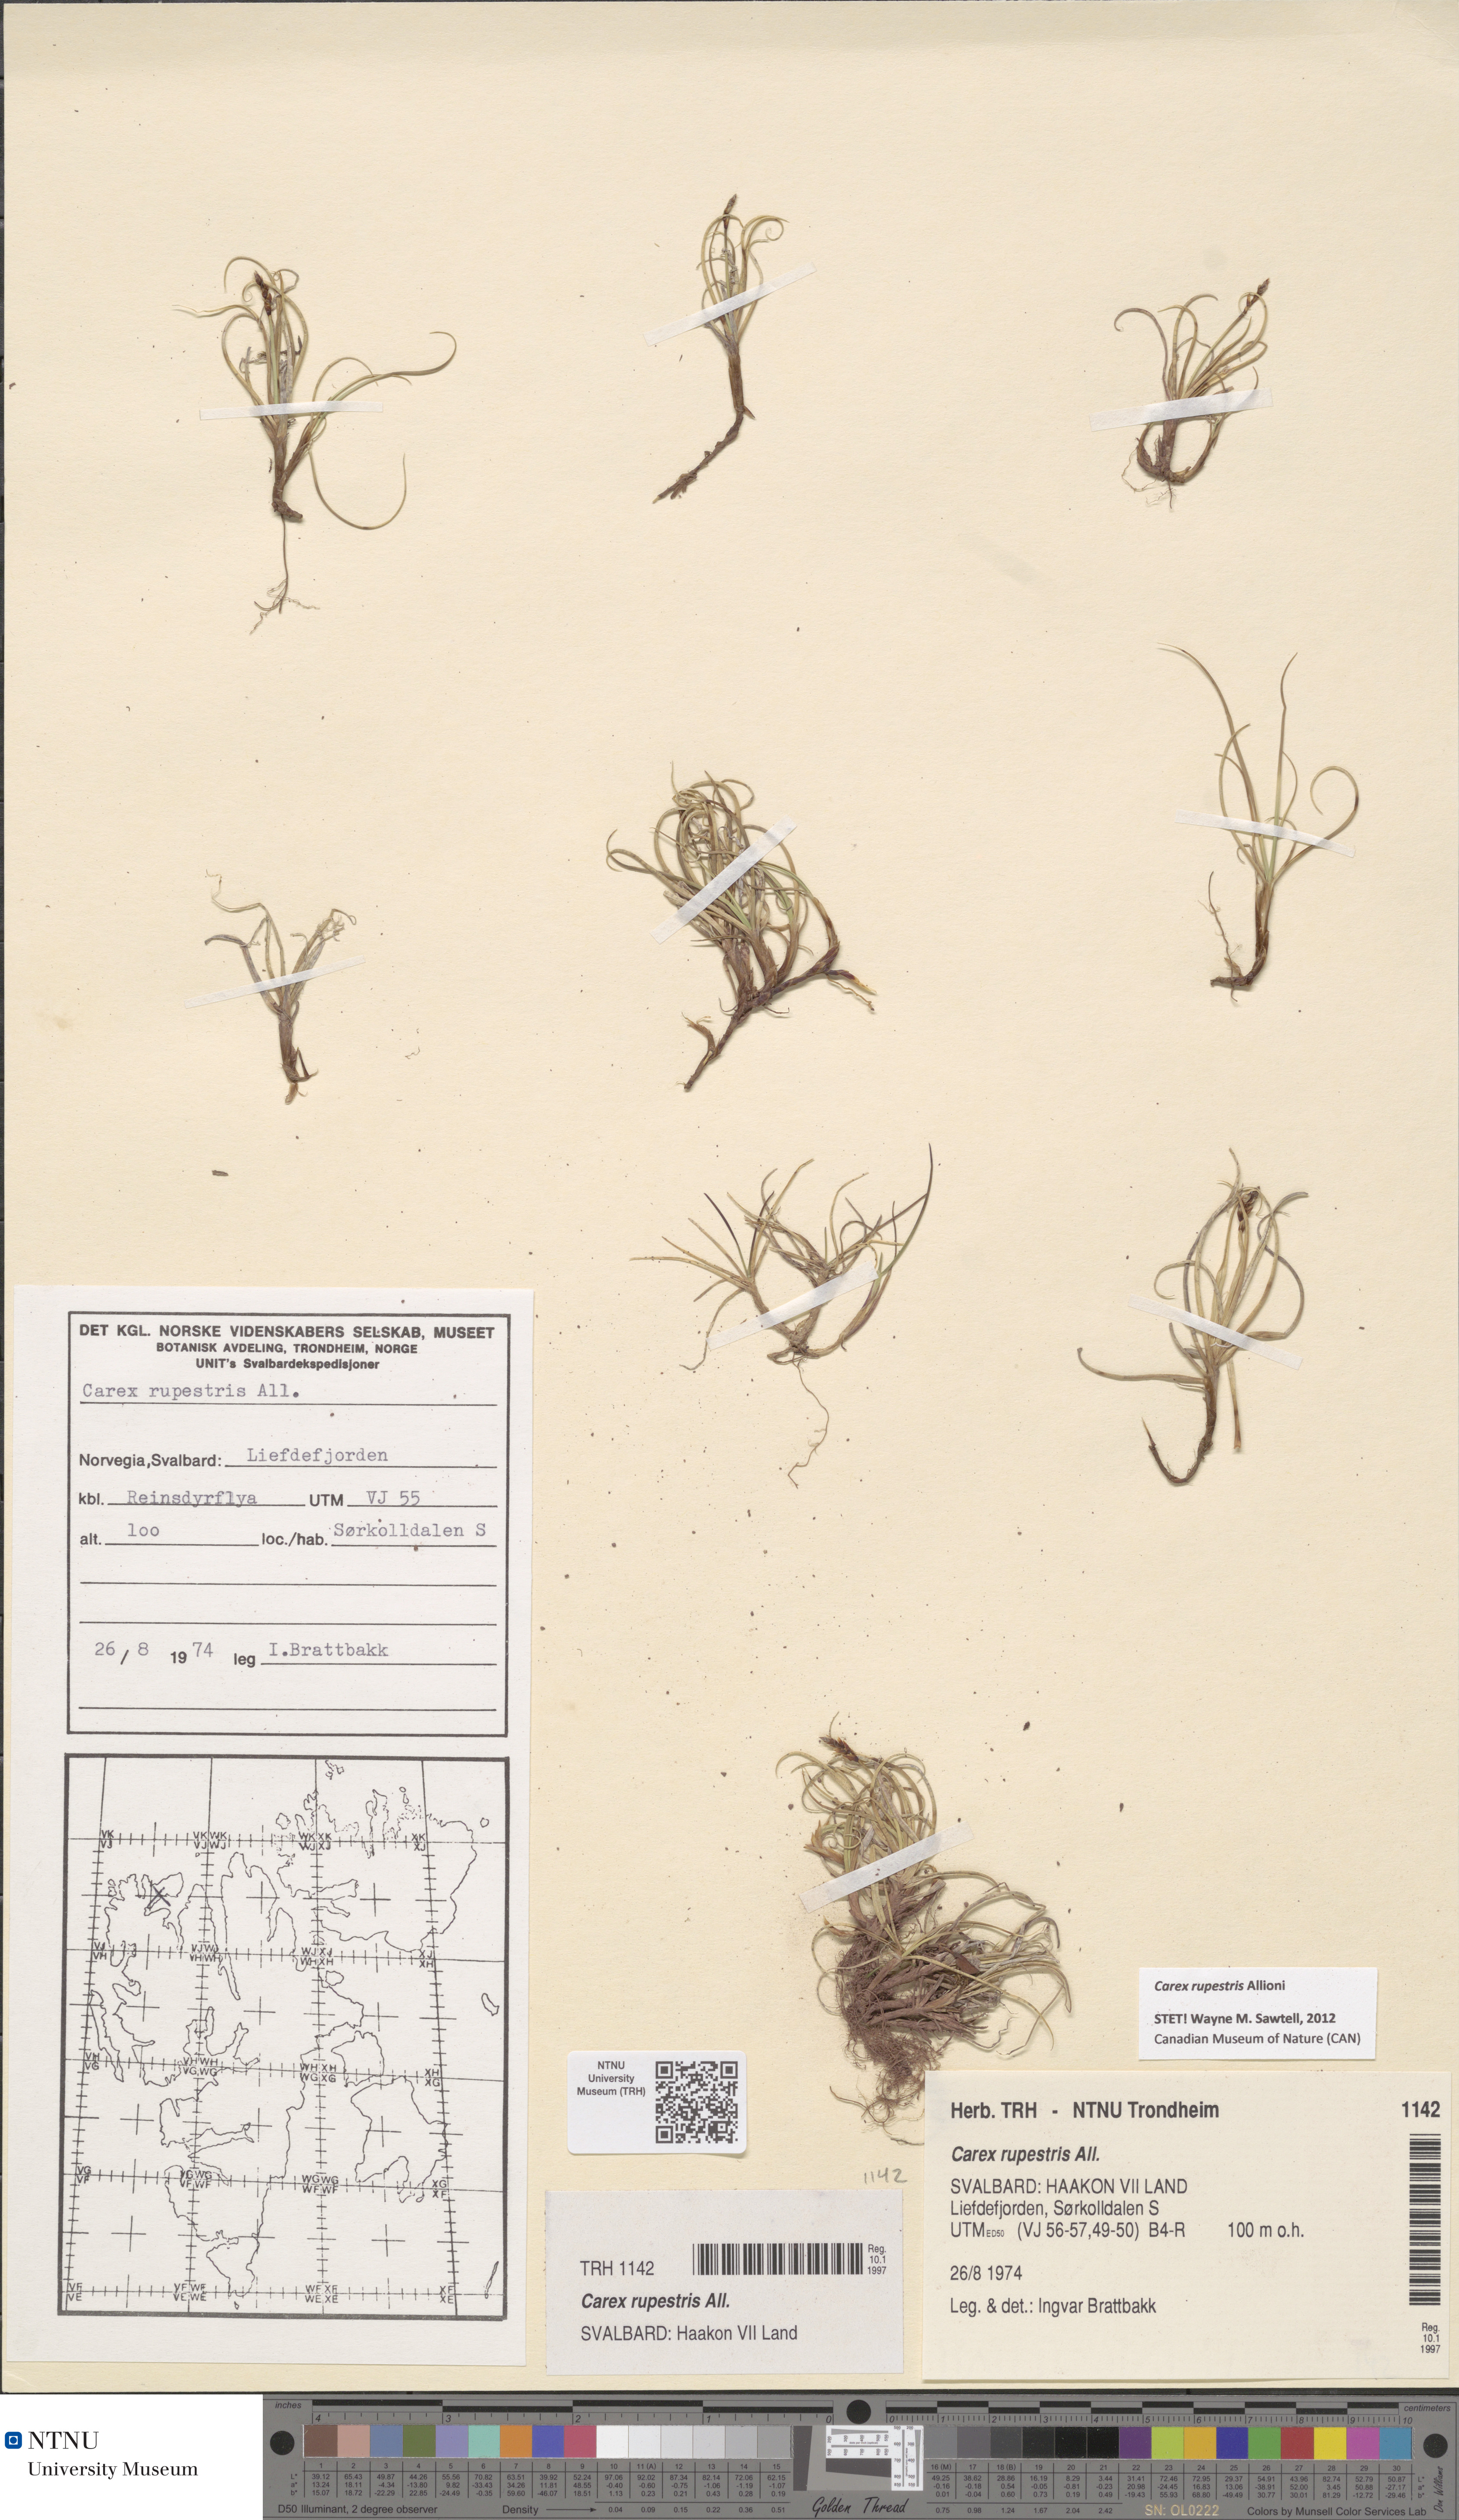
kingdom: Plantae
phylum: Tracheophyta
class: Liliopsida
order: Poales
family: Cyperaceae
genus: Carex
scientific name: Carex rupestris
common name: Rock sedge
